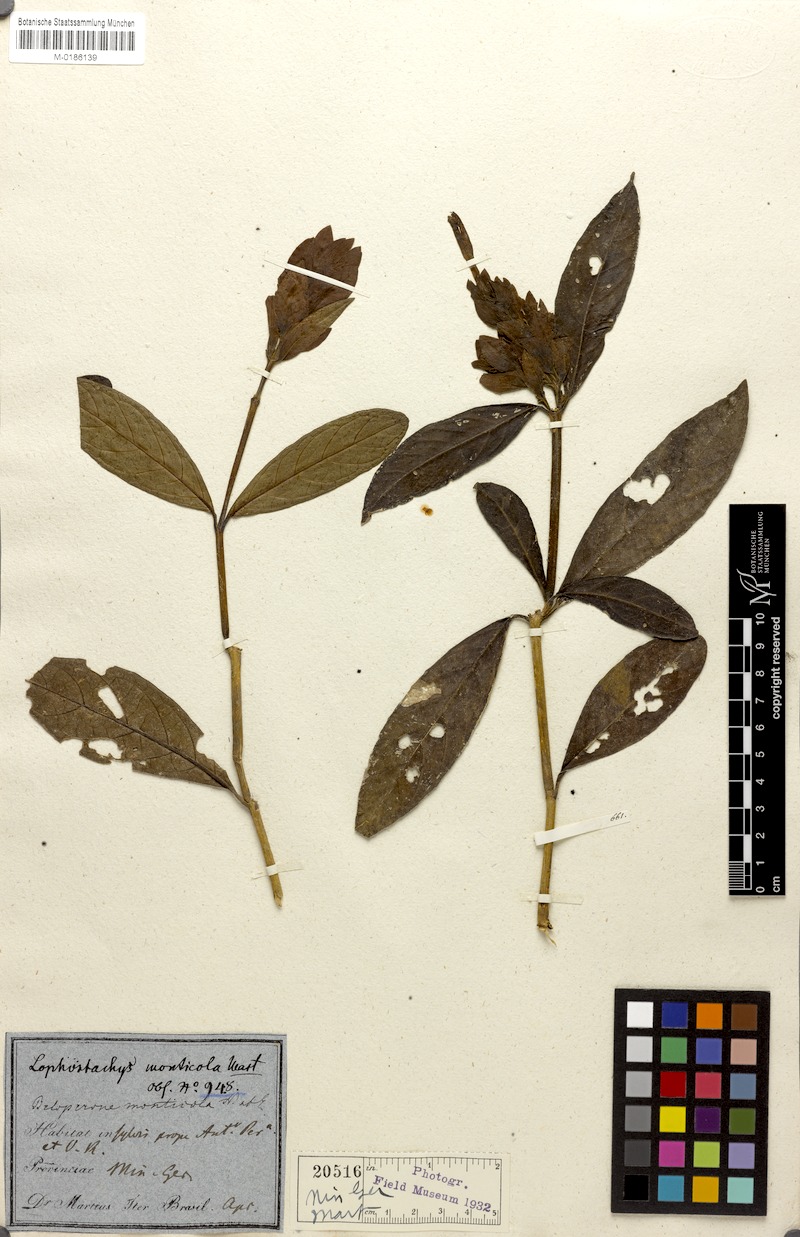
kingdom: Plantae
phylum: Tracheophyta
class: Magnoliopsida
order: Lamiales
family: Acanthaceae
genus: Lepidagathis
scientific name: Lepidagathis Lophostachys monticola
